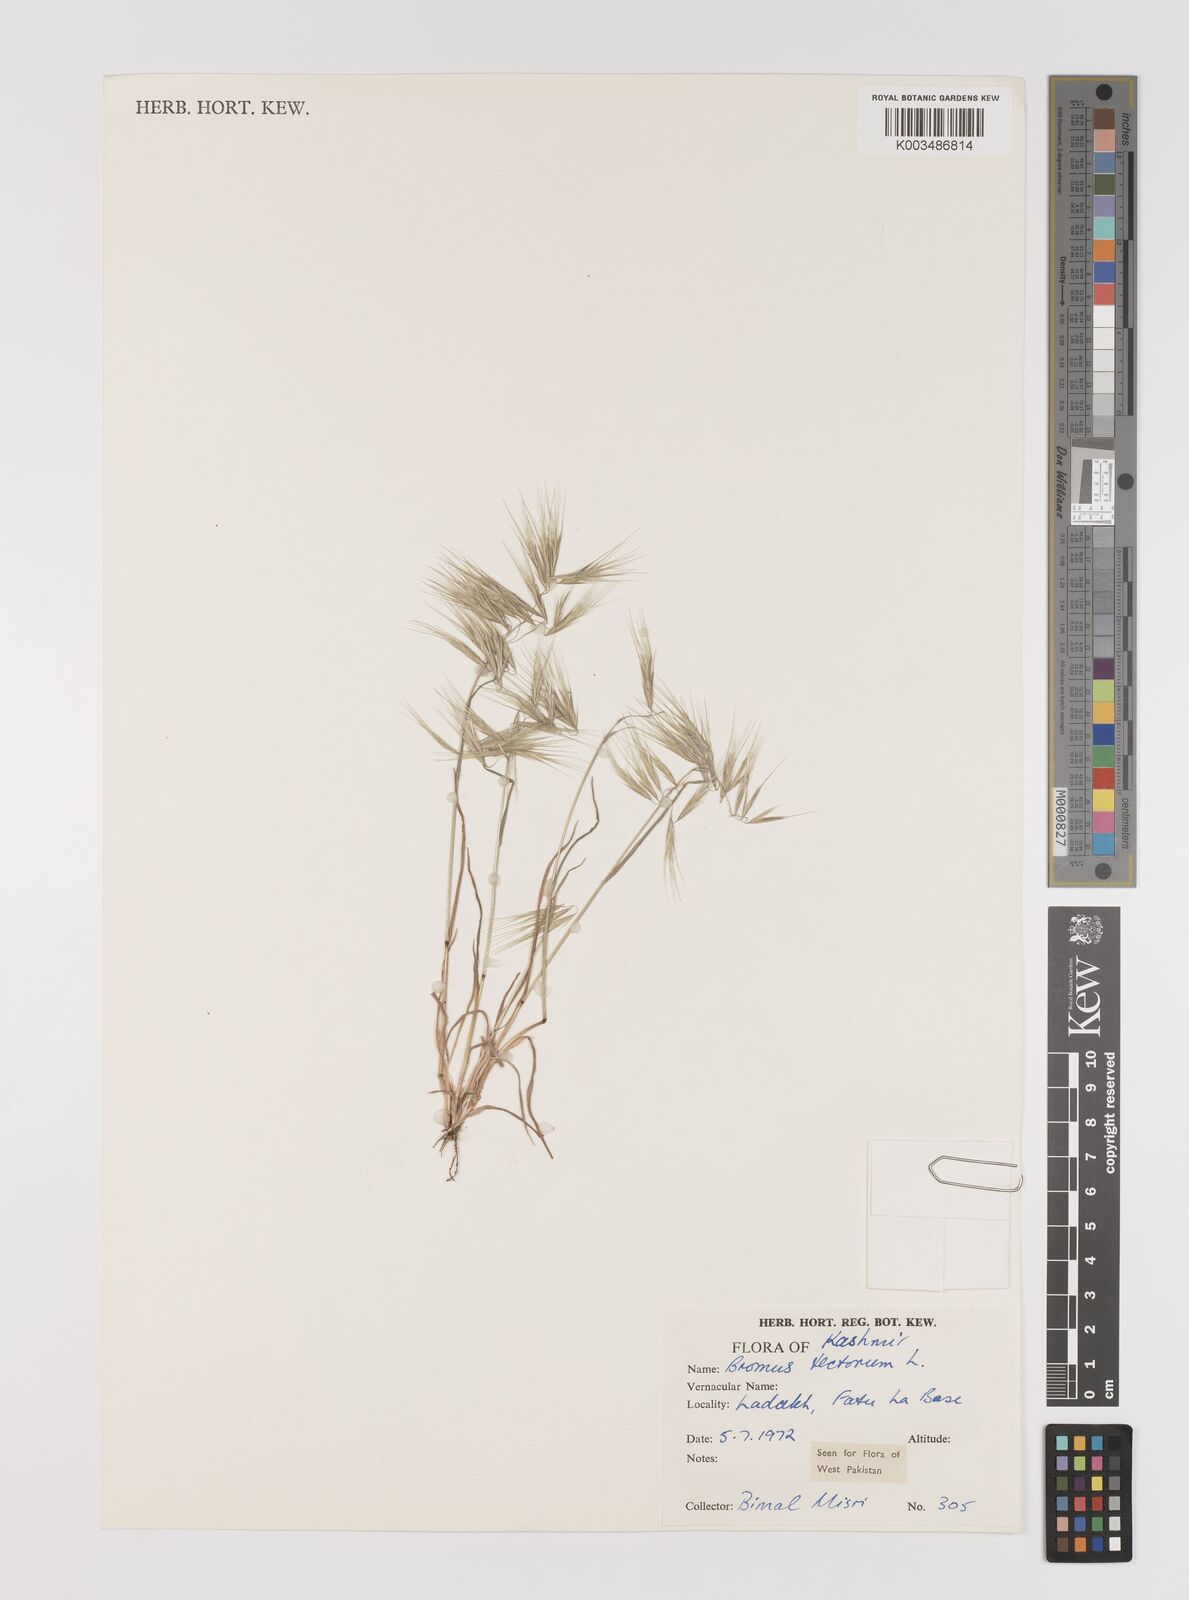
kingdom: Plantae
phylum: Tracheophyta
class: Liliopsida
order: Poales
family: Poaceae
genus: Bromus
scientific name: Bromus tectorum
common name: Cheatgrass
